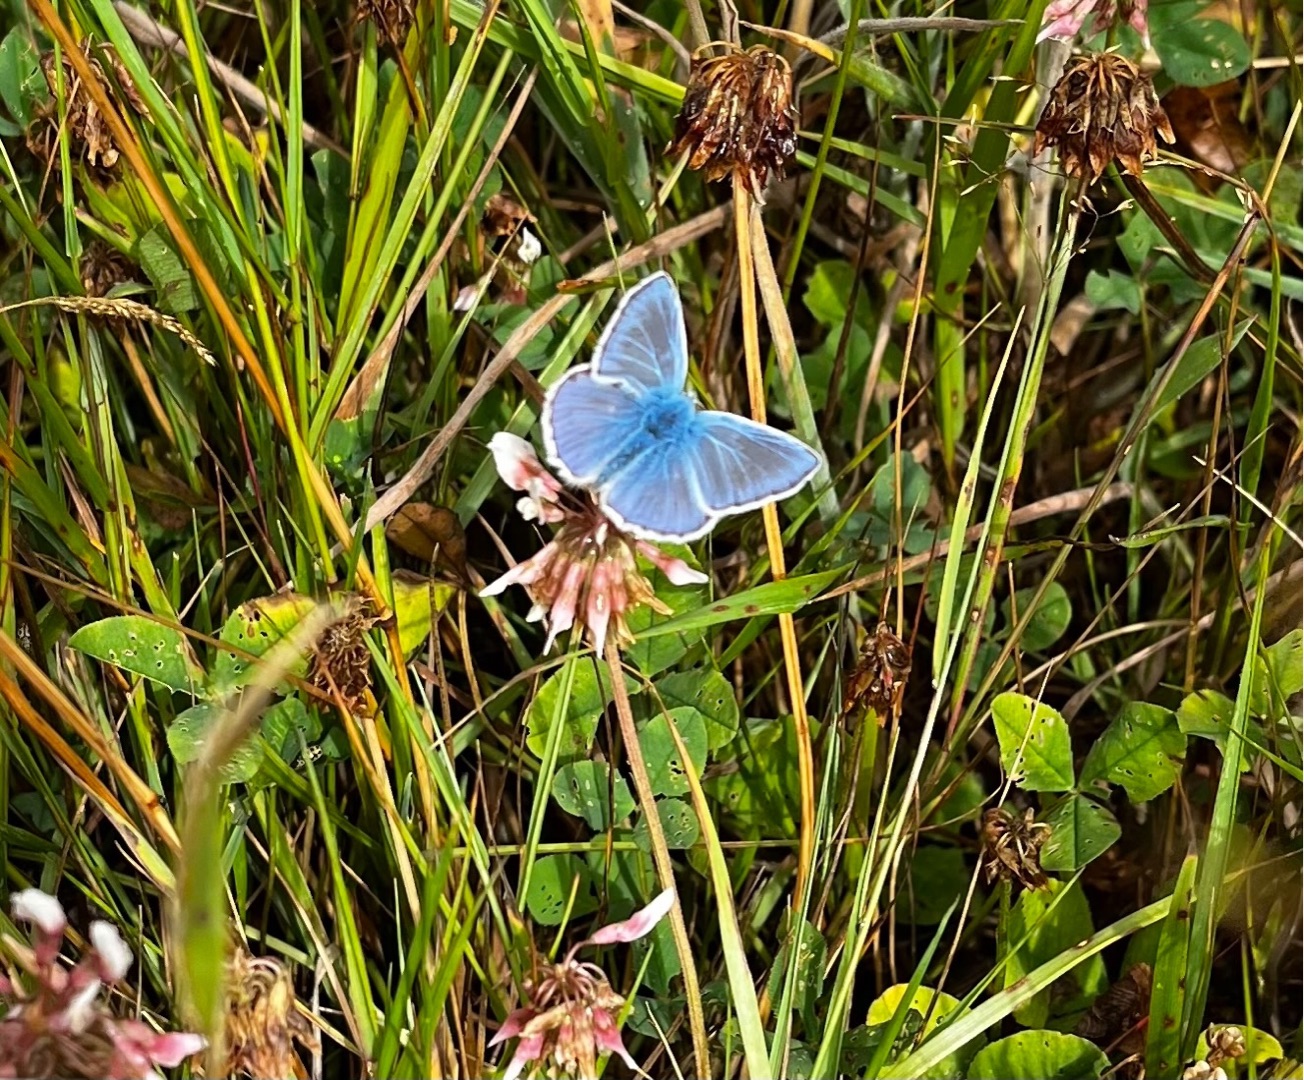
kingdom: Animalia
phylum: Arthropoda
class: Insecta
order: Lepidoptera
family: Lycaenidae
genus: Polyommatus
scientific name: Polyommatus icarus
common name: Almindelig blåfugl
